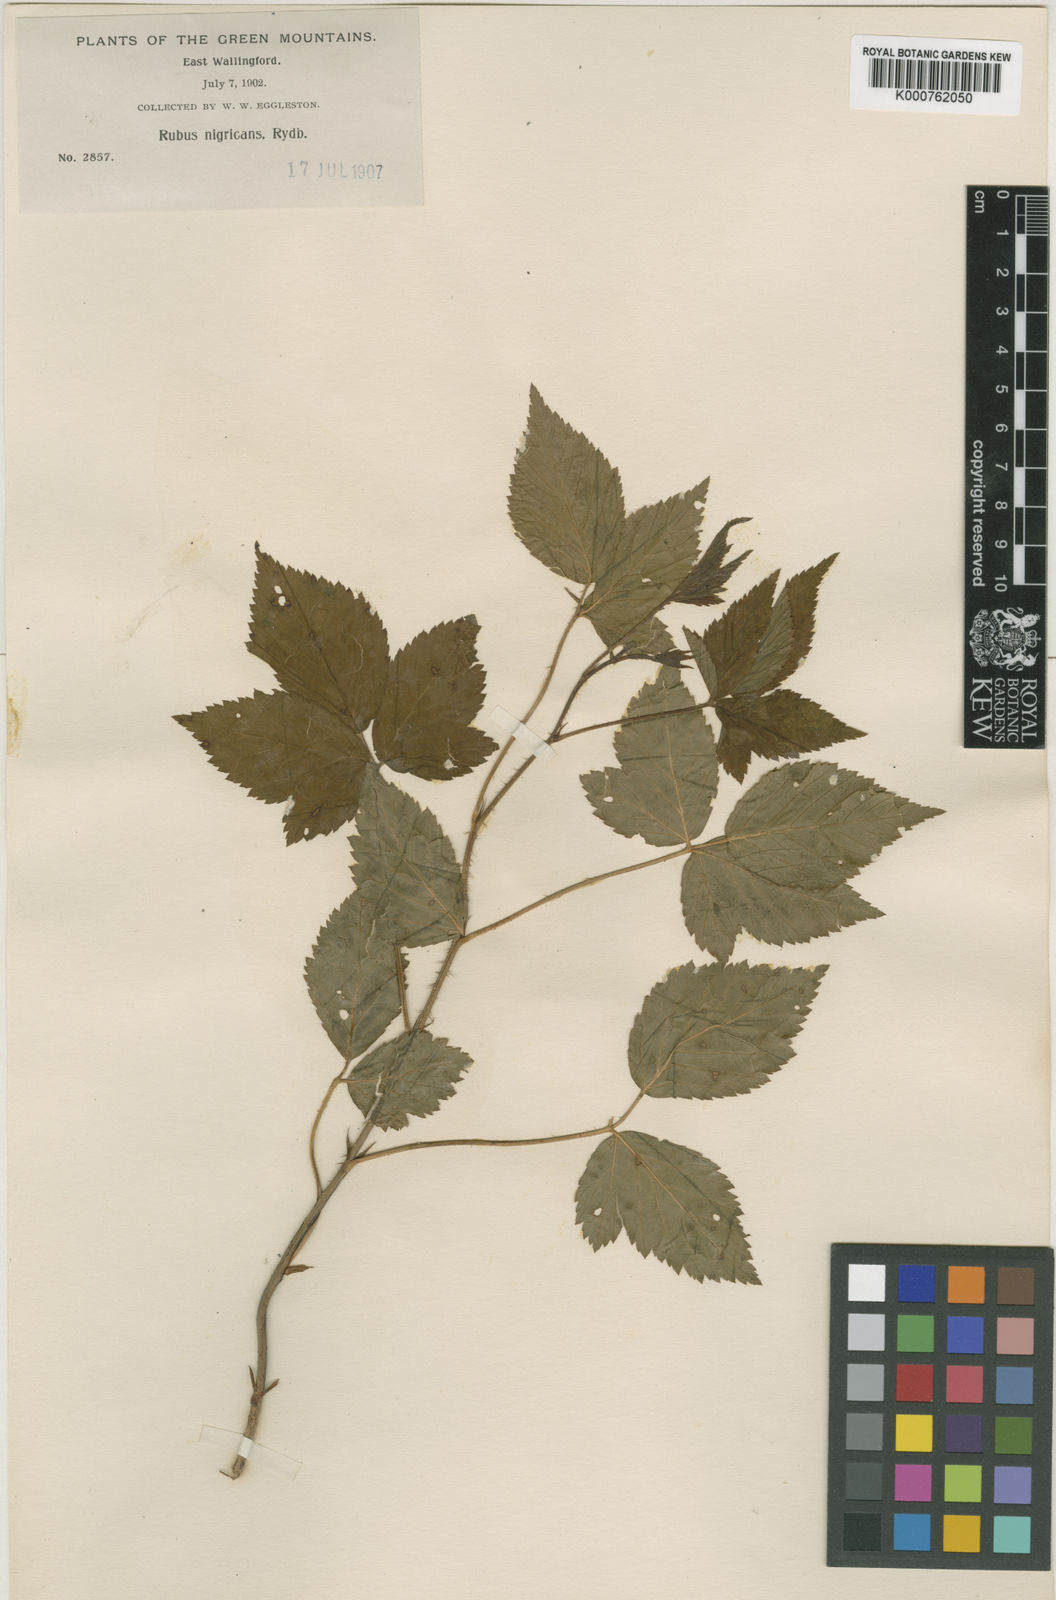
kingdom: Plantae
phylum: Tracheophyta
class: Magnoliopsida
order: Rosales
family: Rosaceae
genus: Rubus
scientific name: Rubus setosus
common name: Bristly blackberry
